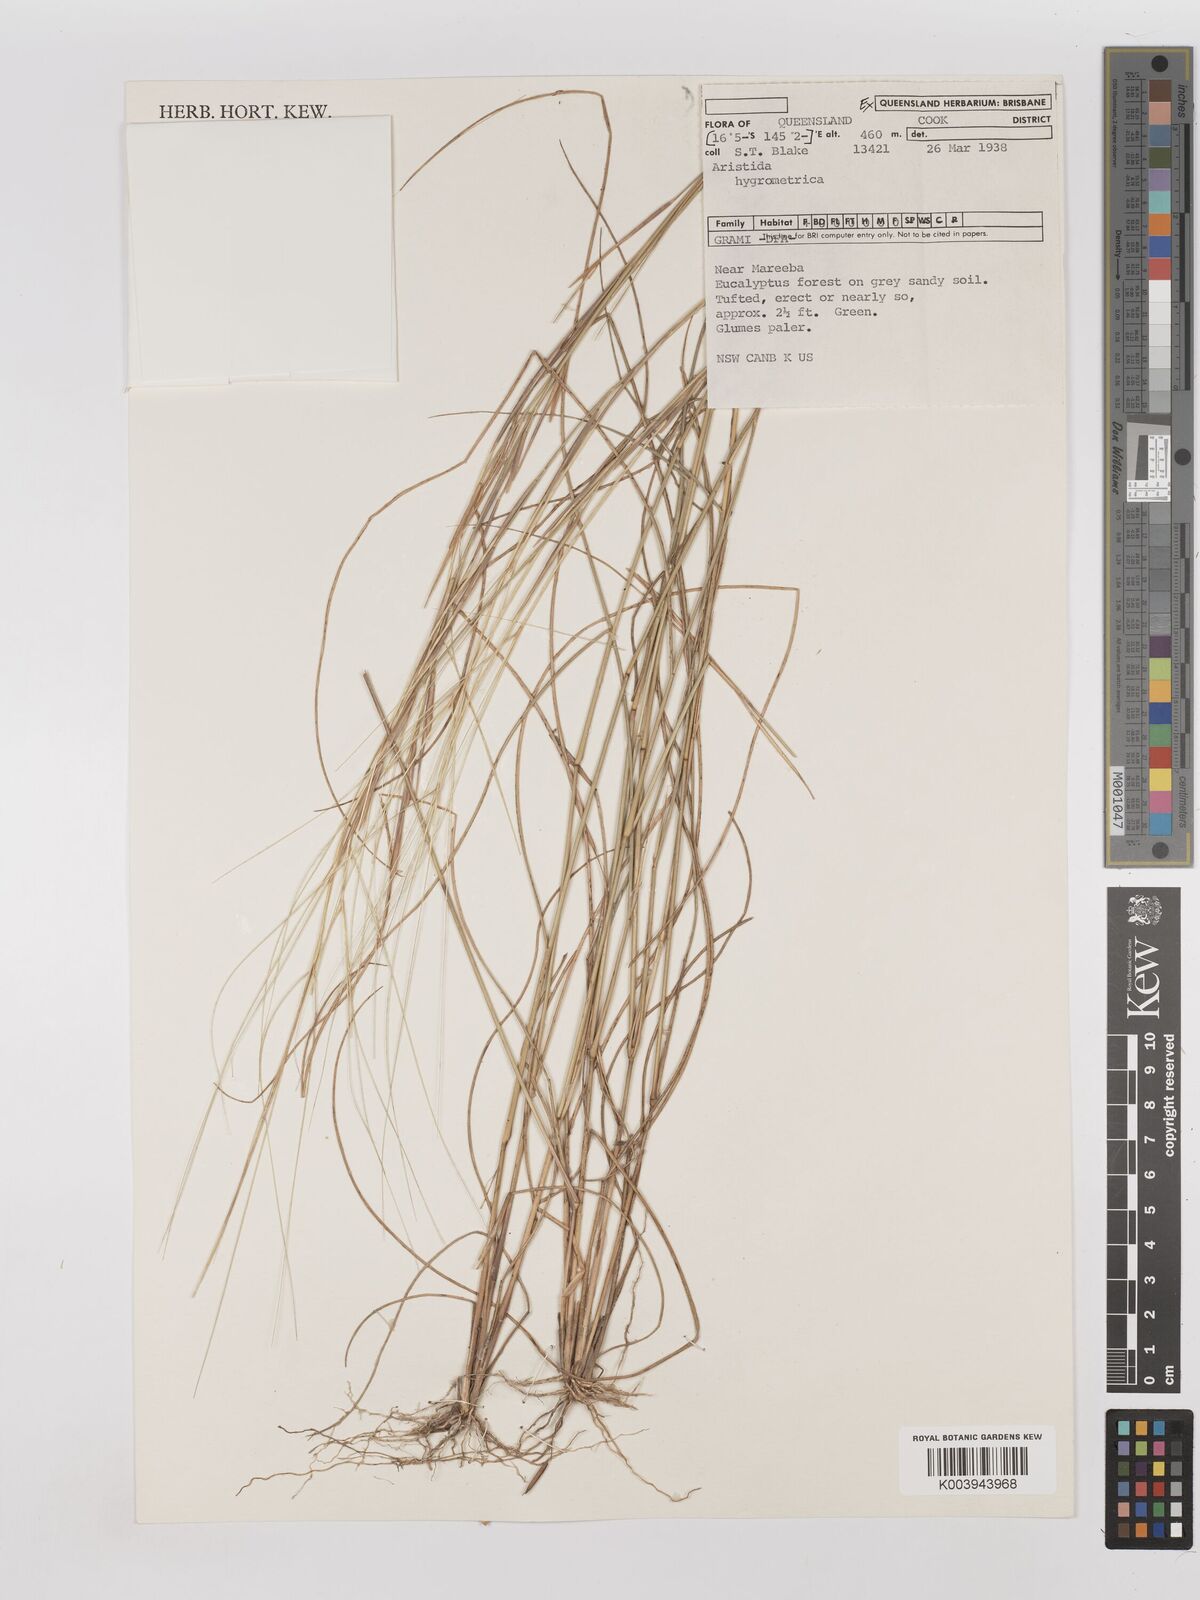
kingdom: Plantae
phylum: Tracheophyta
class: Liliopsida
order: Poales
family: Poaceae
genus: Aristida
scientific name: Aristida hygrometrica
